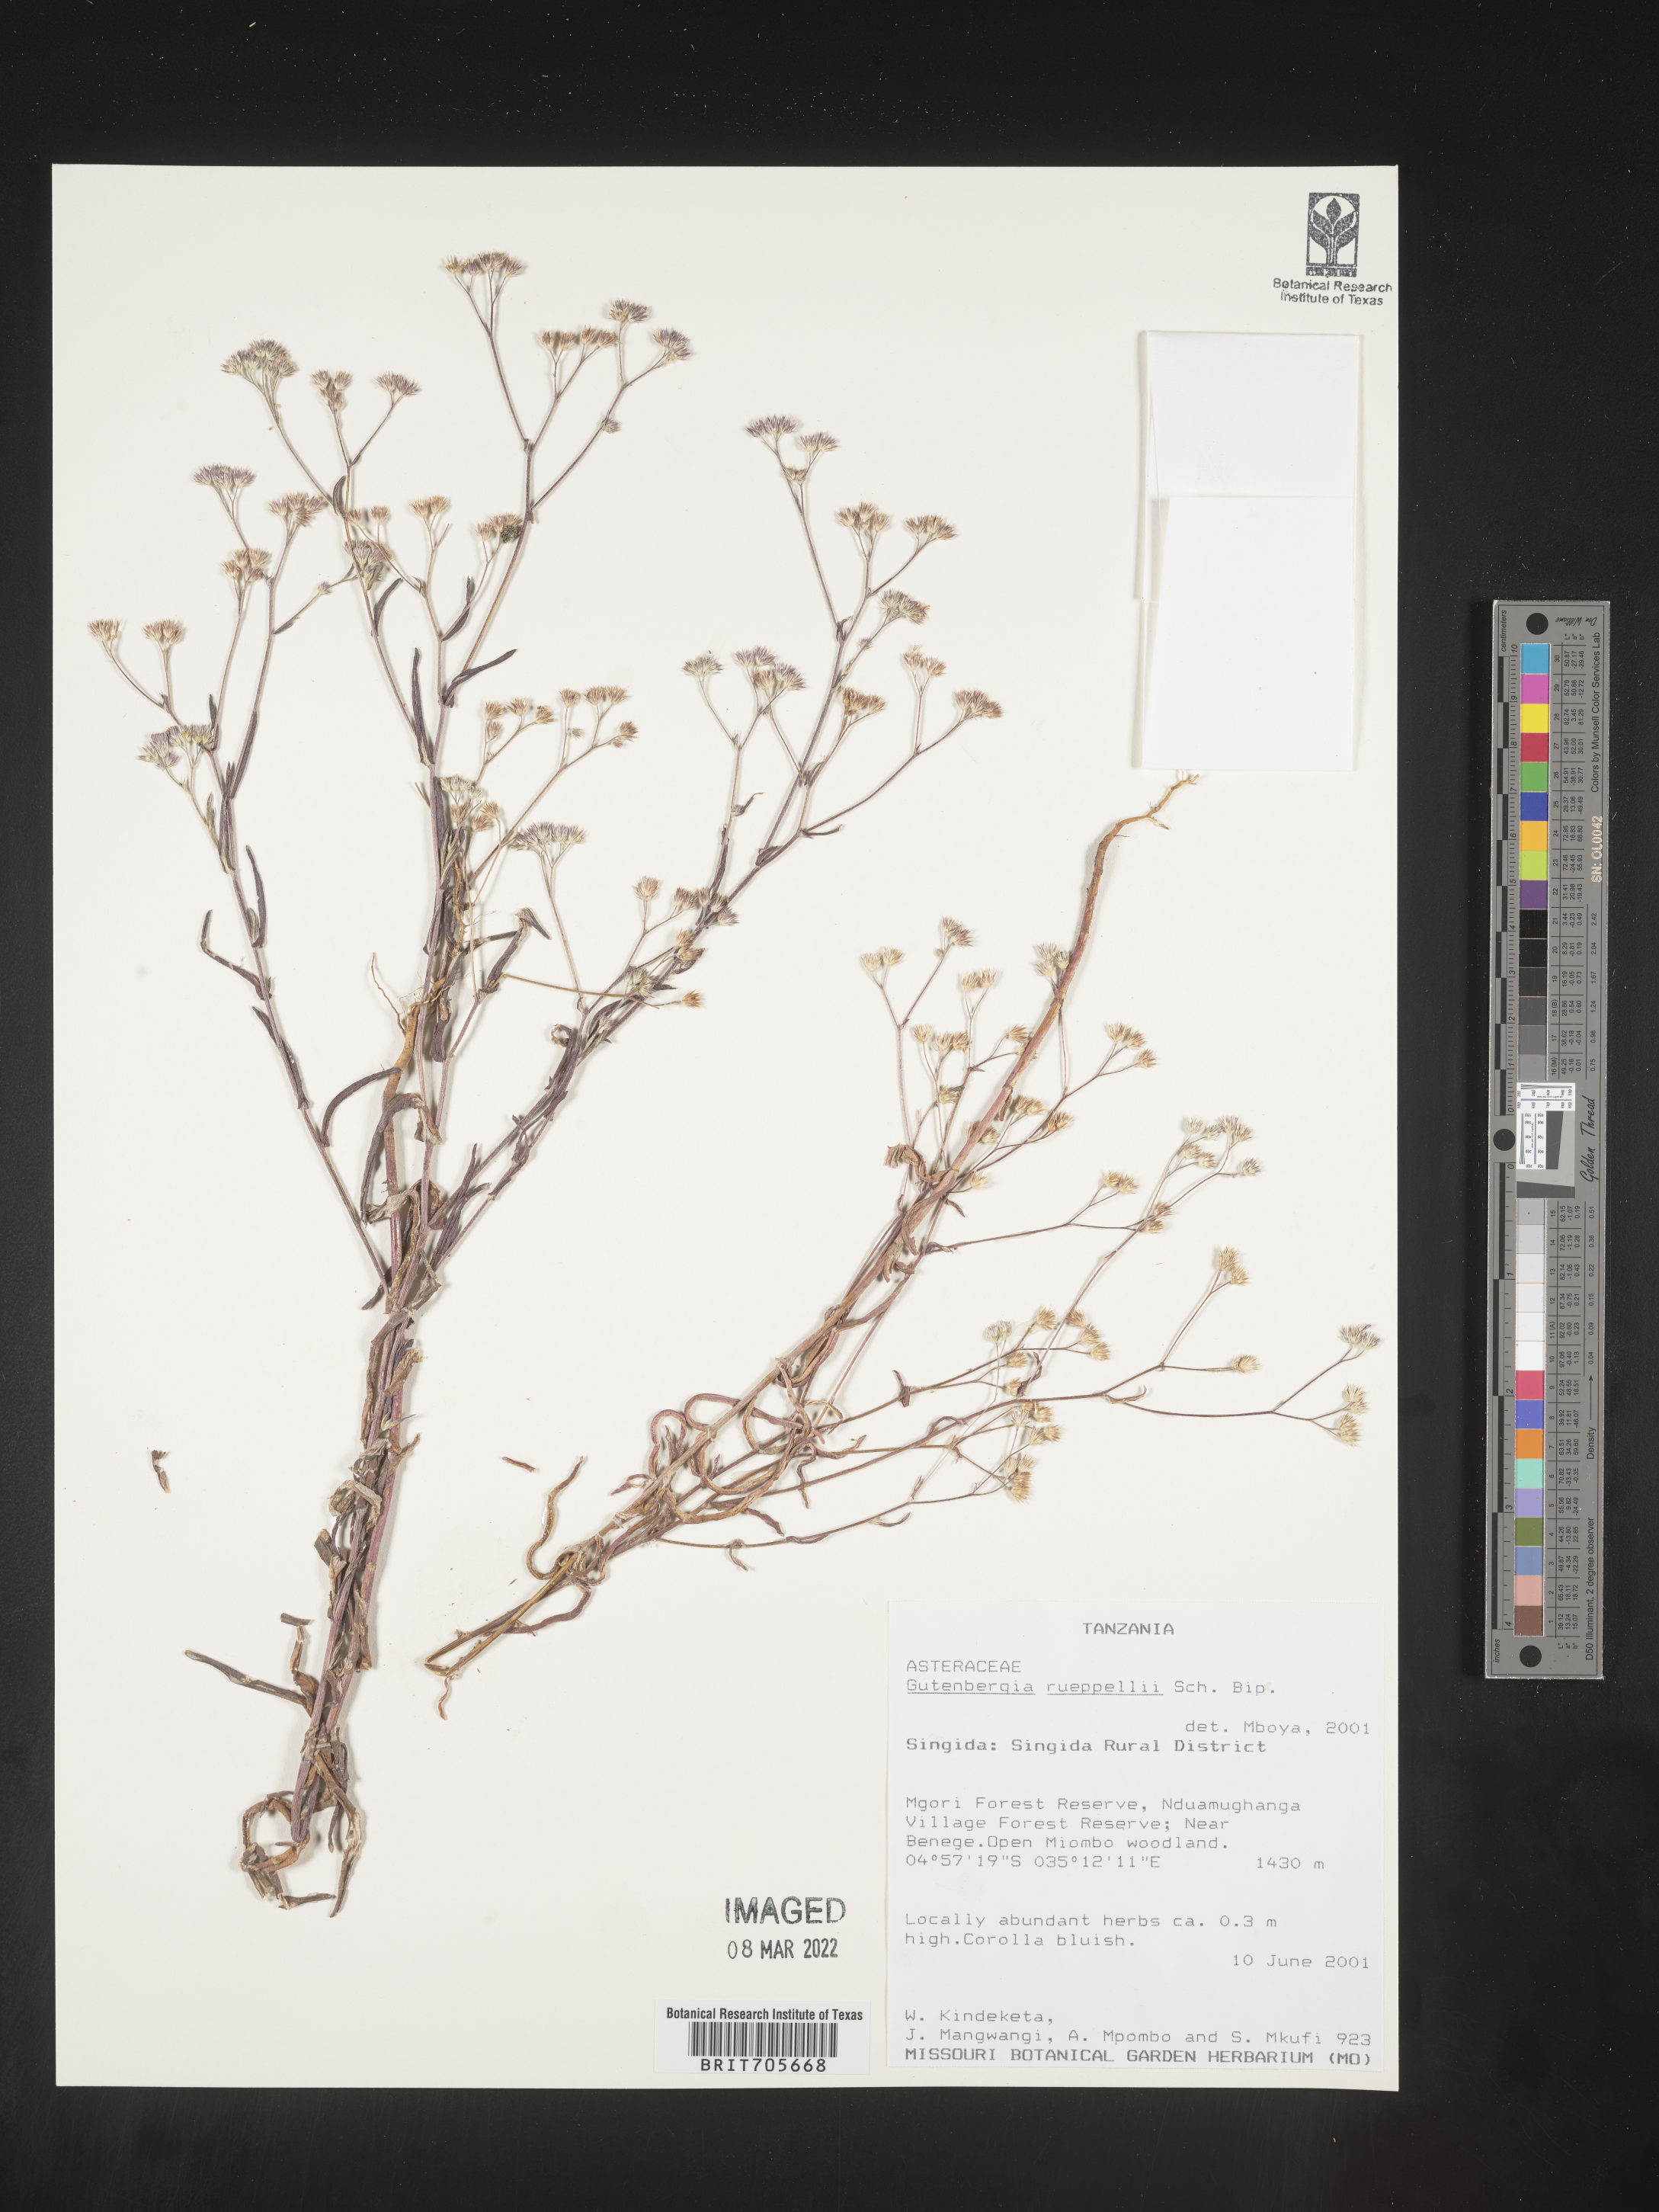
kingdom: Plantae
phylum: Tracheophyta
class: Magnoliopsida
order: Asterales
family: Asteraceae
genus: Gutenbergia
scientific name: Gutenbergia
